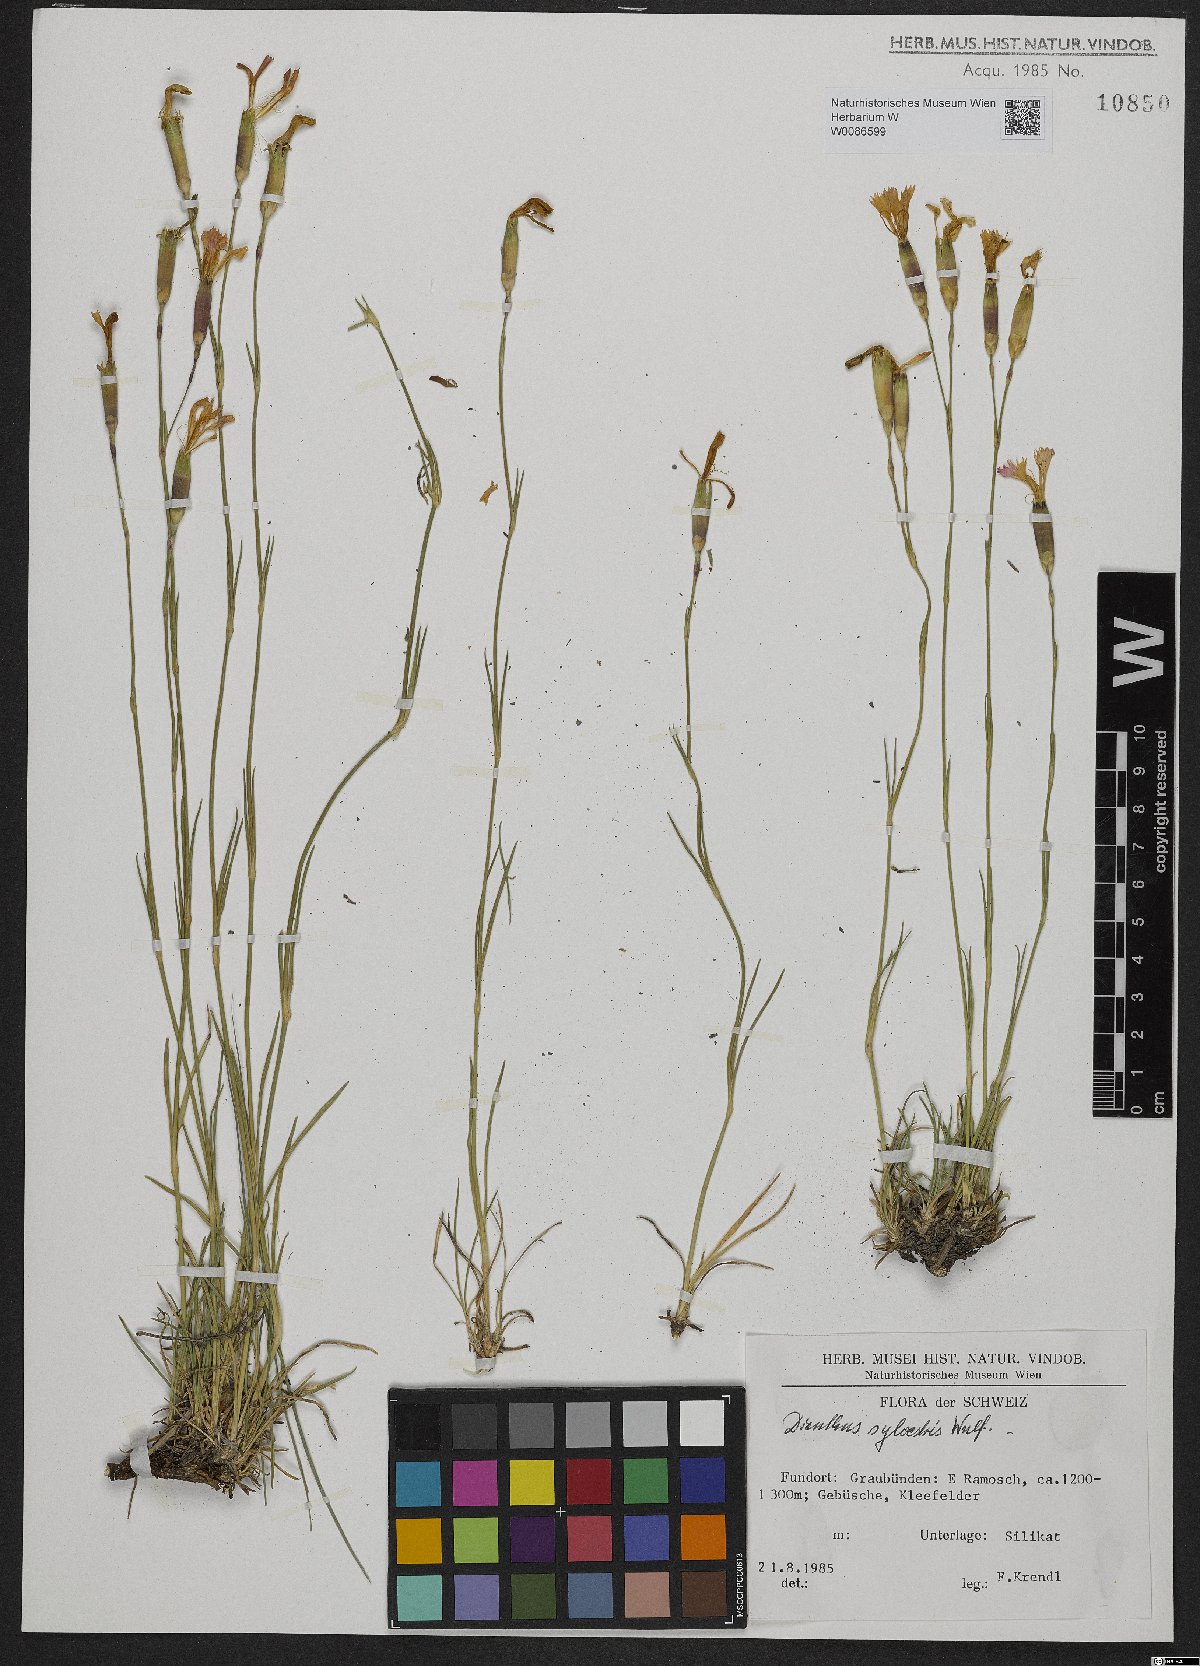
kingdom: Plantae
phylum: Tracheophyta
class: Magnoliopsida
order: Caryophyllales
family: Caryophyllaceae
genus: Dianthus
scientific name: Dianthus sylvestris
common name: Wood pink
